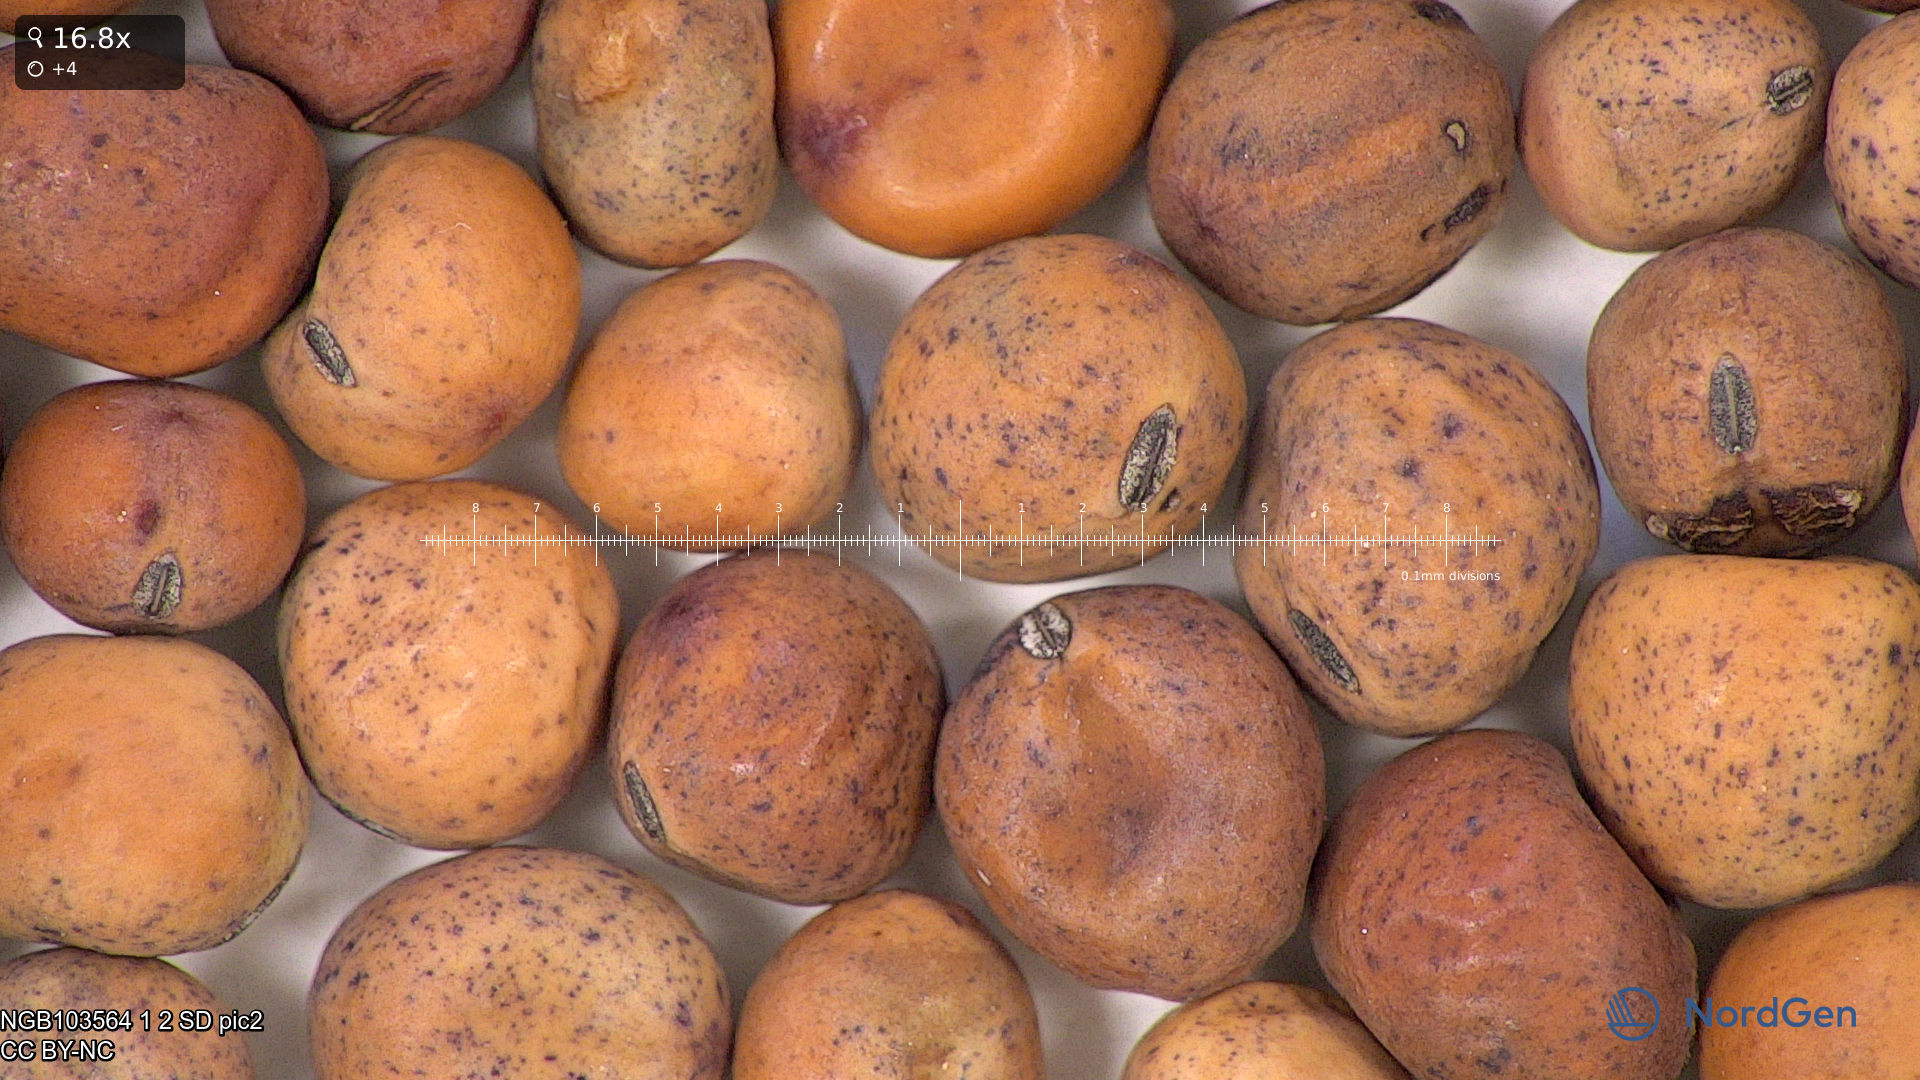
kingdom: Plantae
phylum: Tracheophyta
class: Magnoliopsida
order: Fabales
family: Fabaceae
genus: Lathyrus
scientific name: Lathyrus oleraceus
